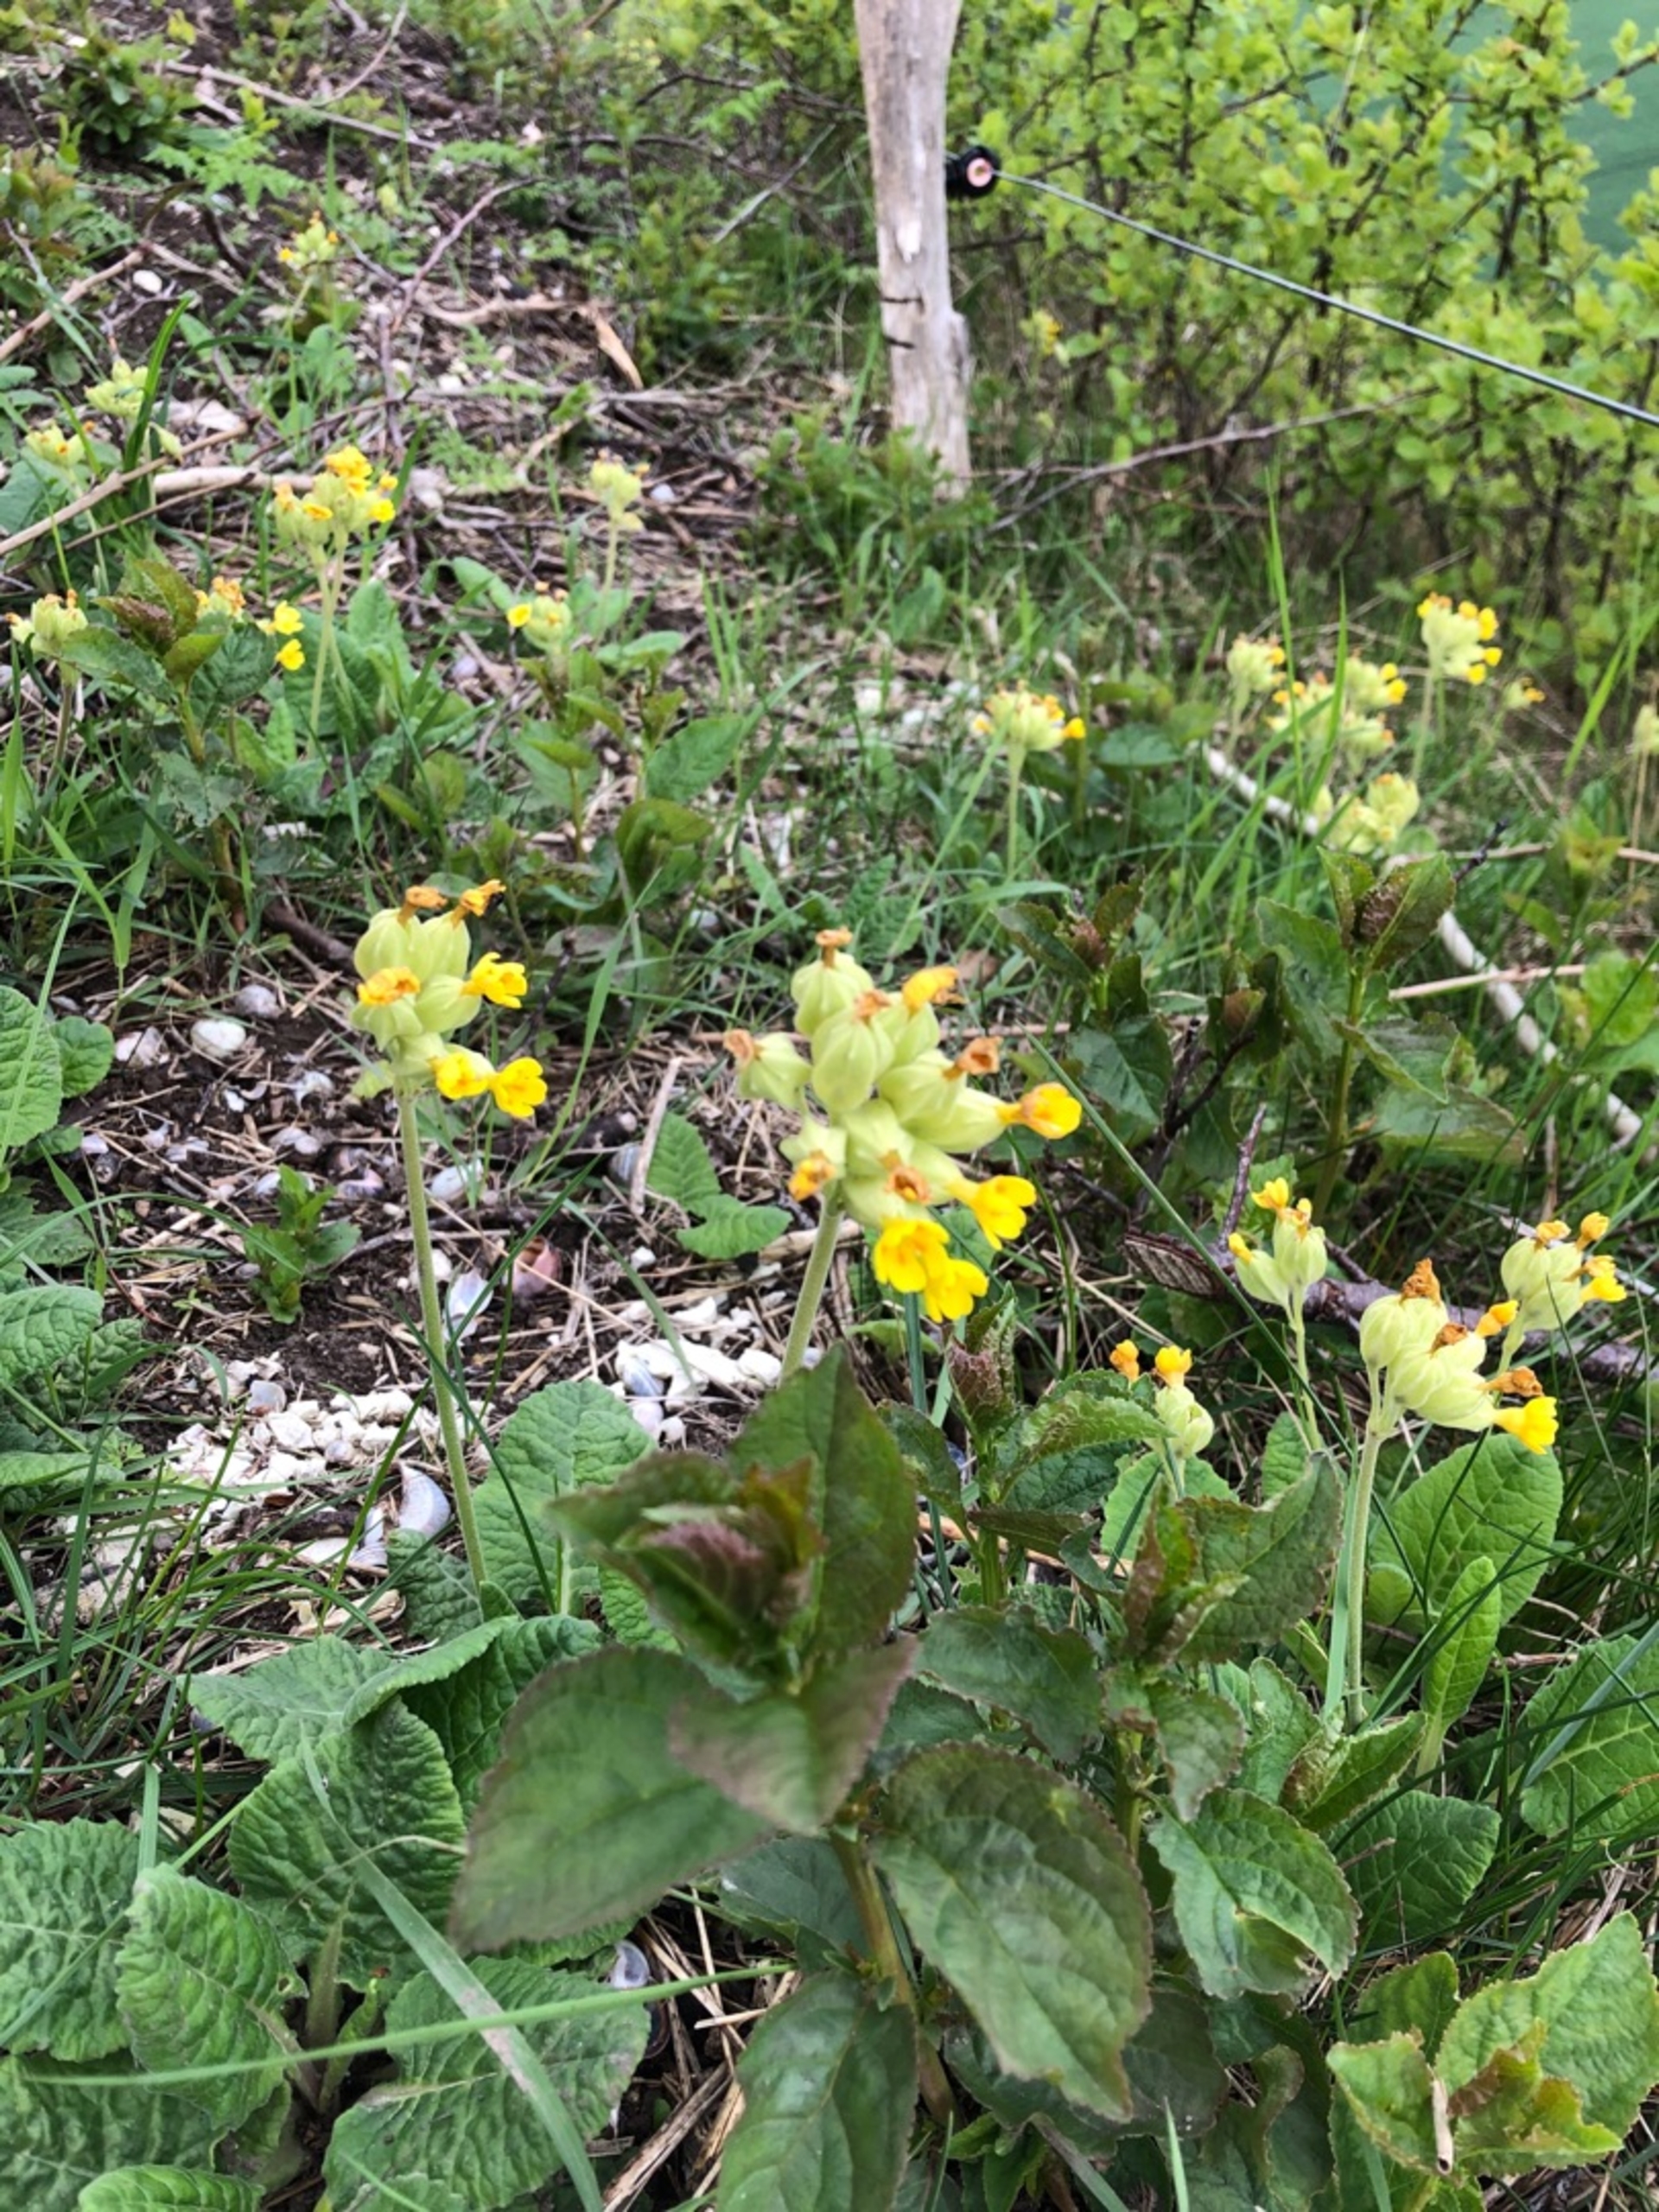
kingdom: Plantae
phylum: Tracheophyta
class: Magnoliopsida
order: Ericales
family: Primulaceae
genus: Primula
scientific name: Primula veris
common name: Hulkravet kodriver
